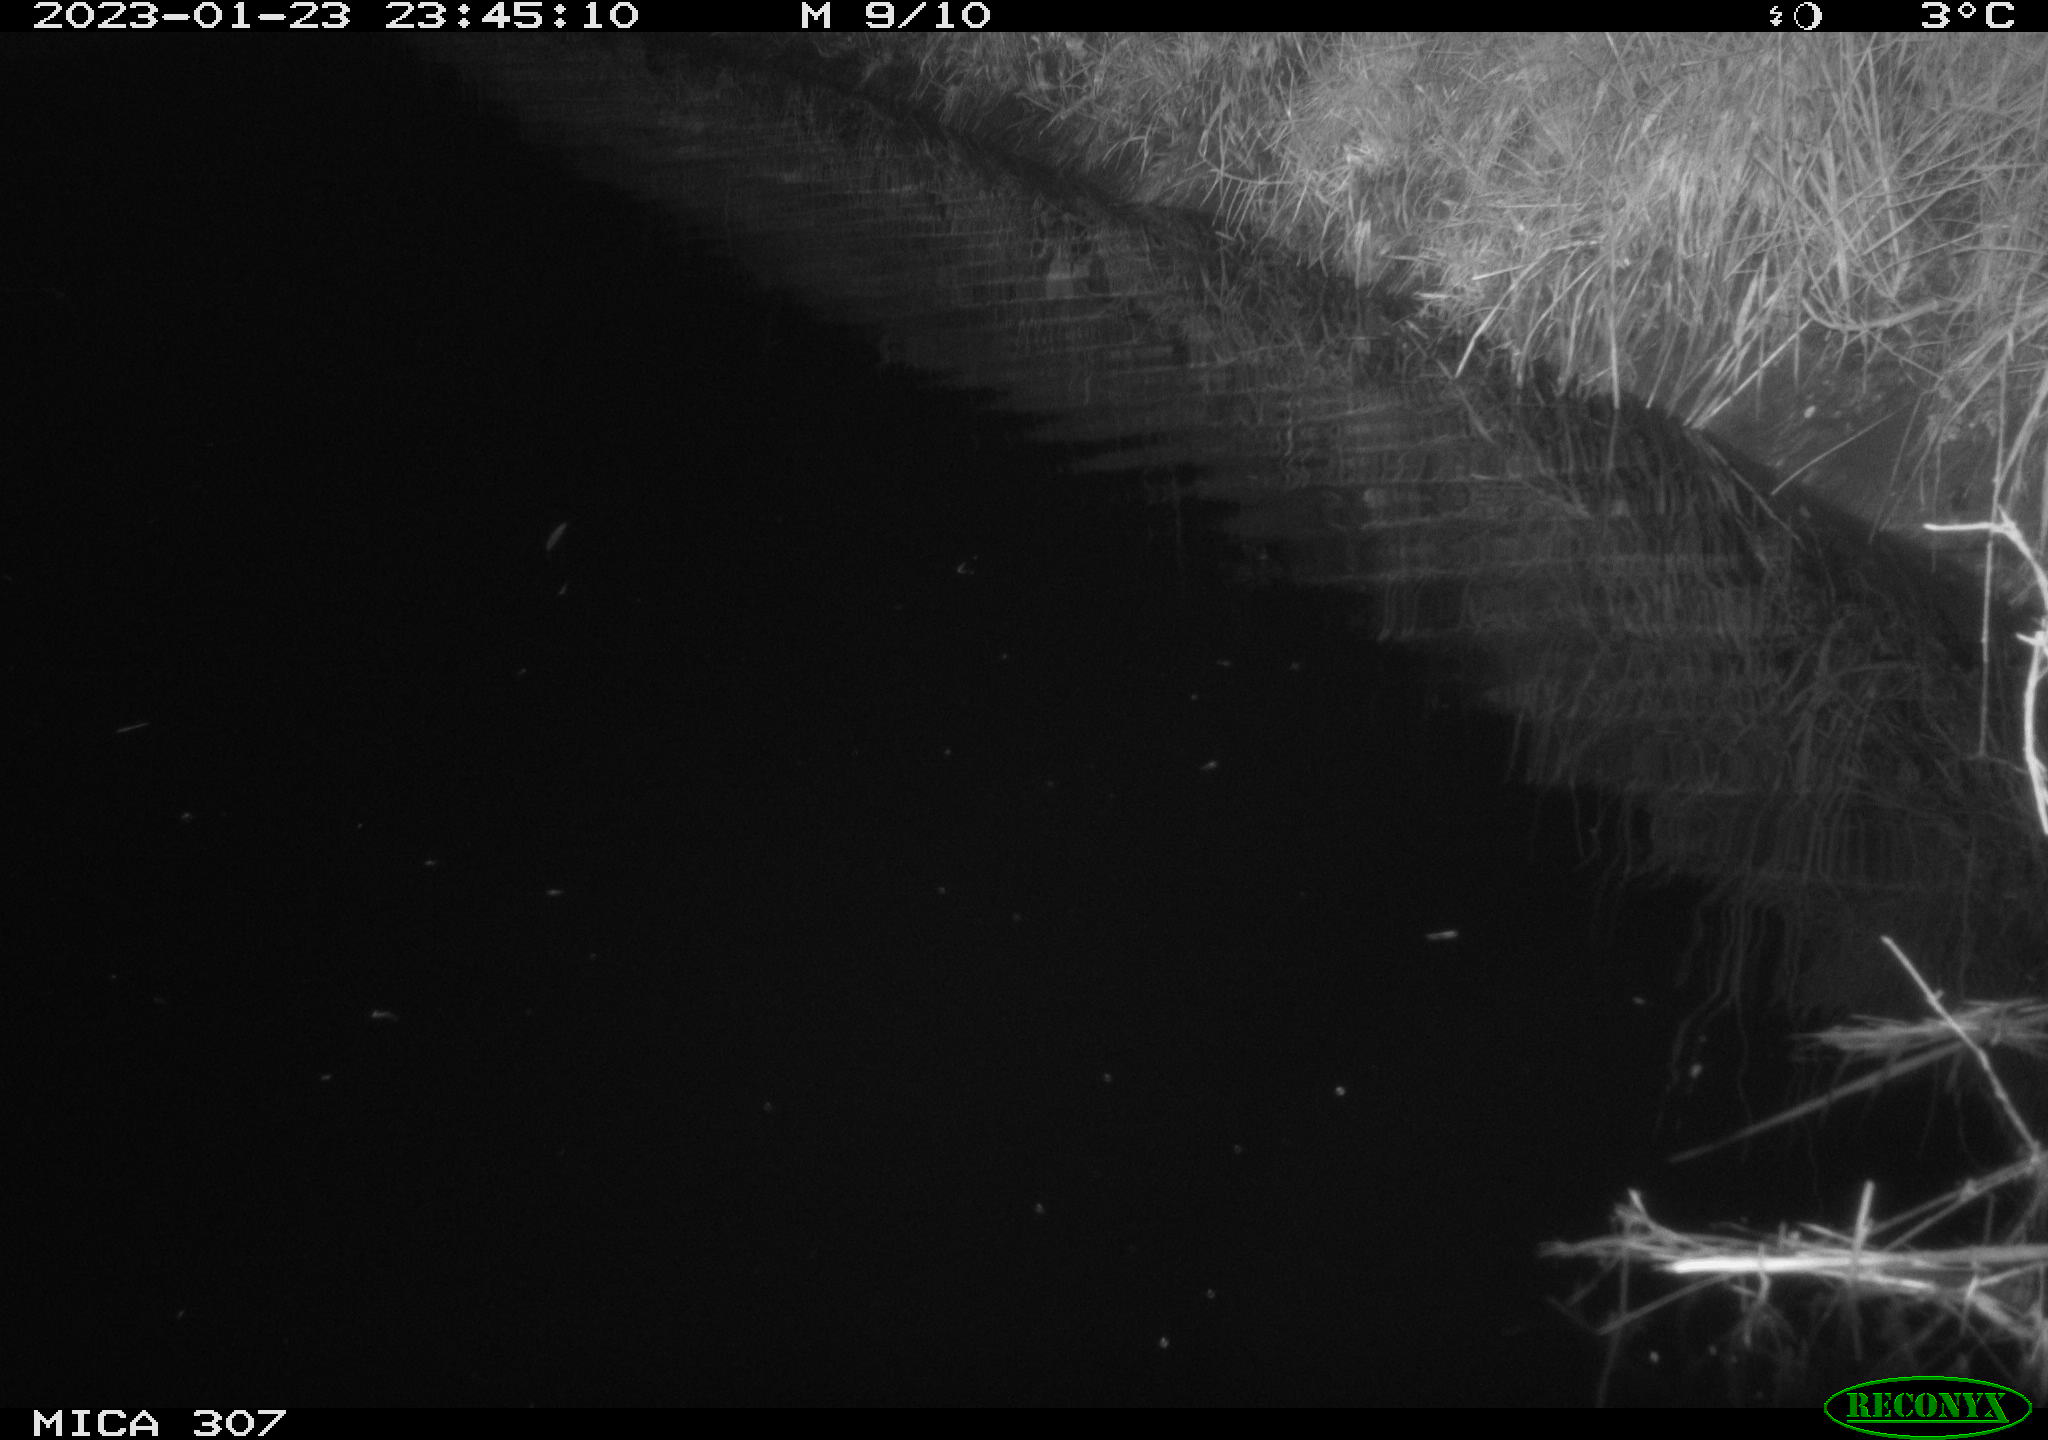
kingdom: Animalia
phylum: Chordata
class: Mammalia
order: Rodentia
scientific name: Rodentia
